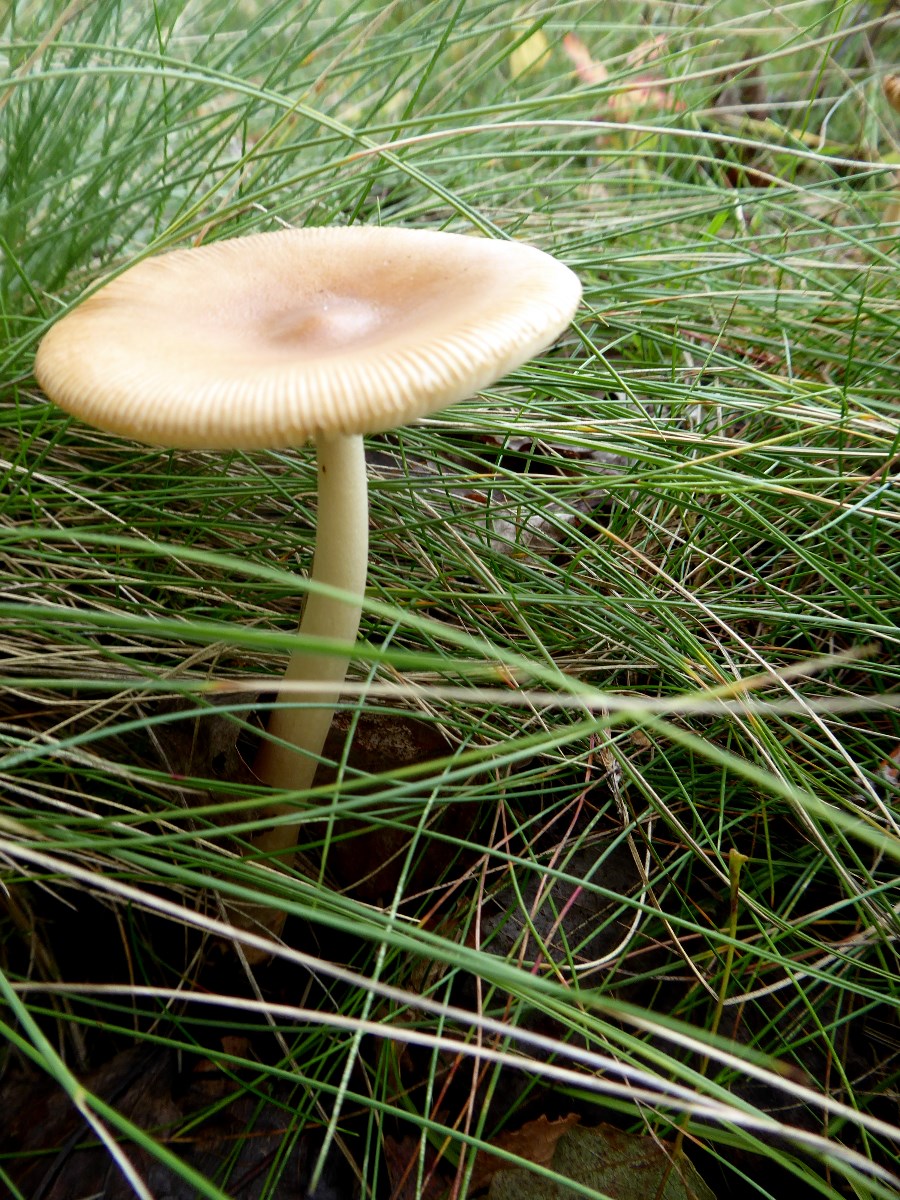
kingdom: Fungi
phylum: Basidiomycota
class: Agaricomycetes
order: Agaricales
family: Amanitaceae
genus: Amanita
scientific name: Amanita fulva
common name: brun kam-fluesvamp
